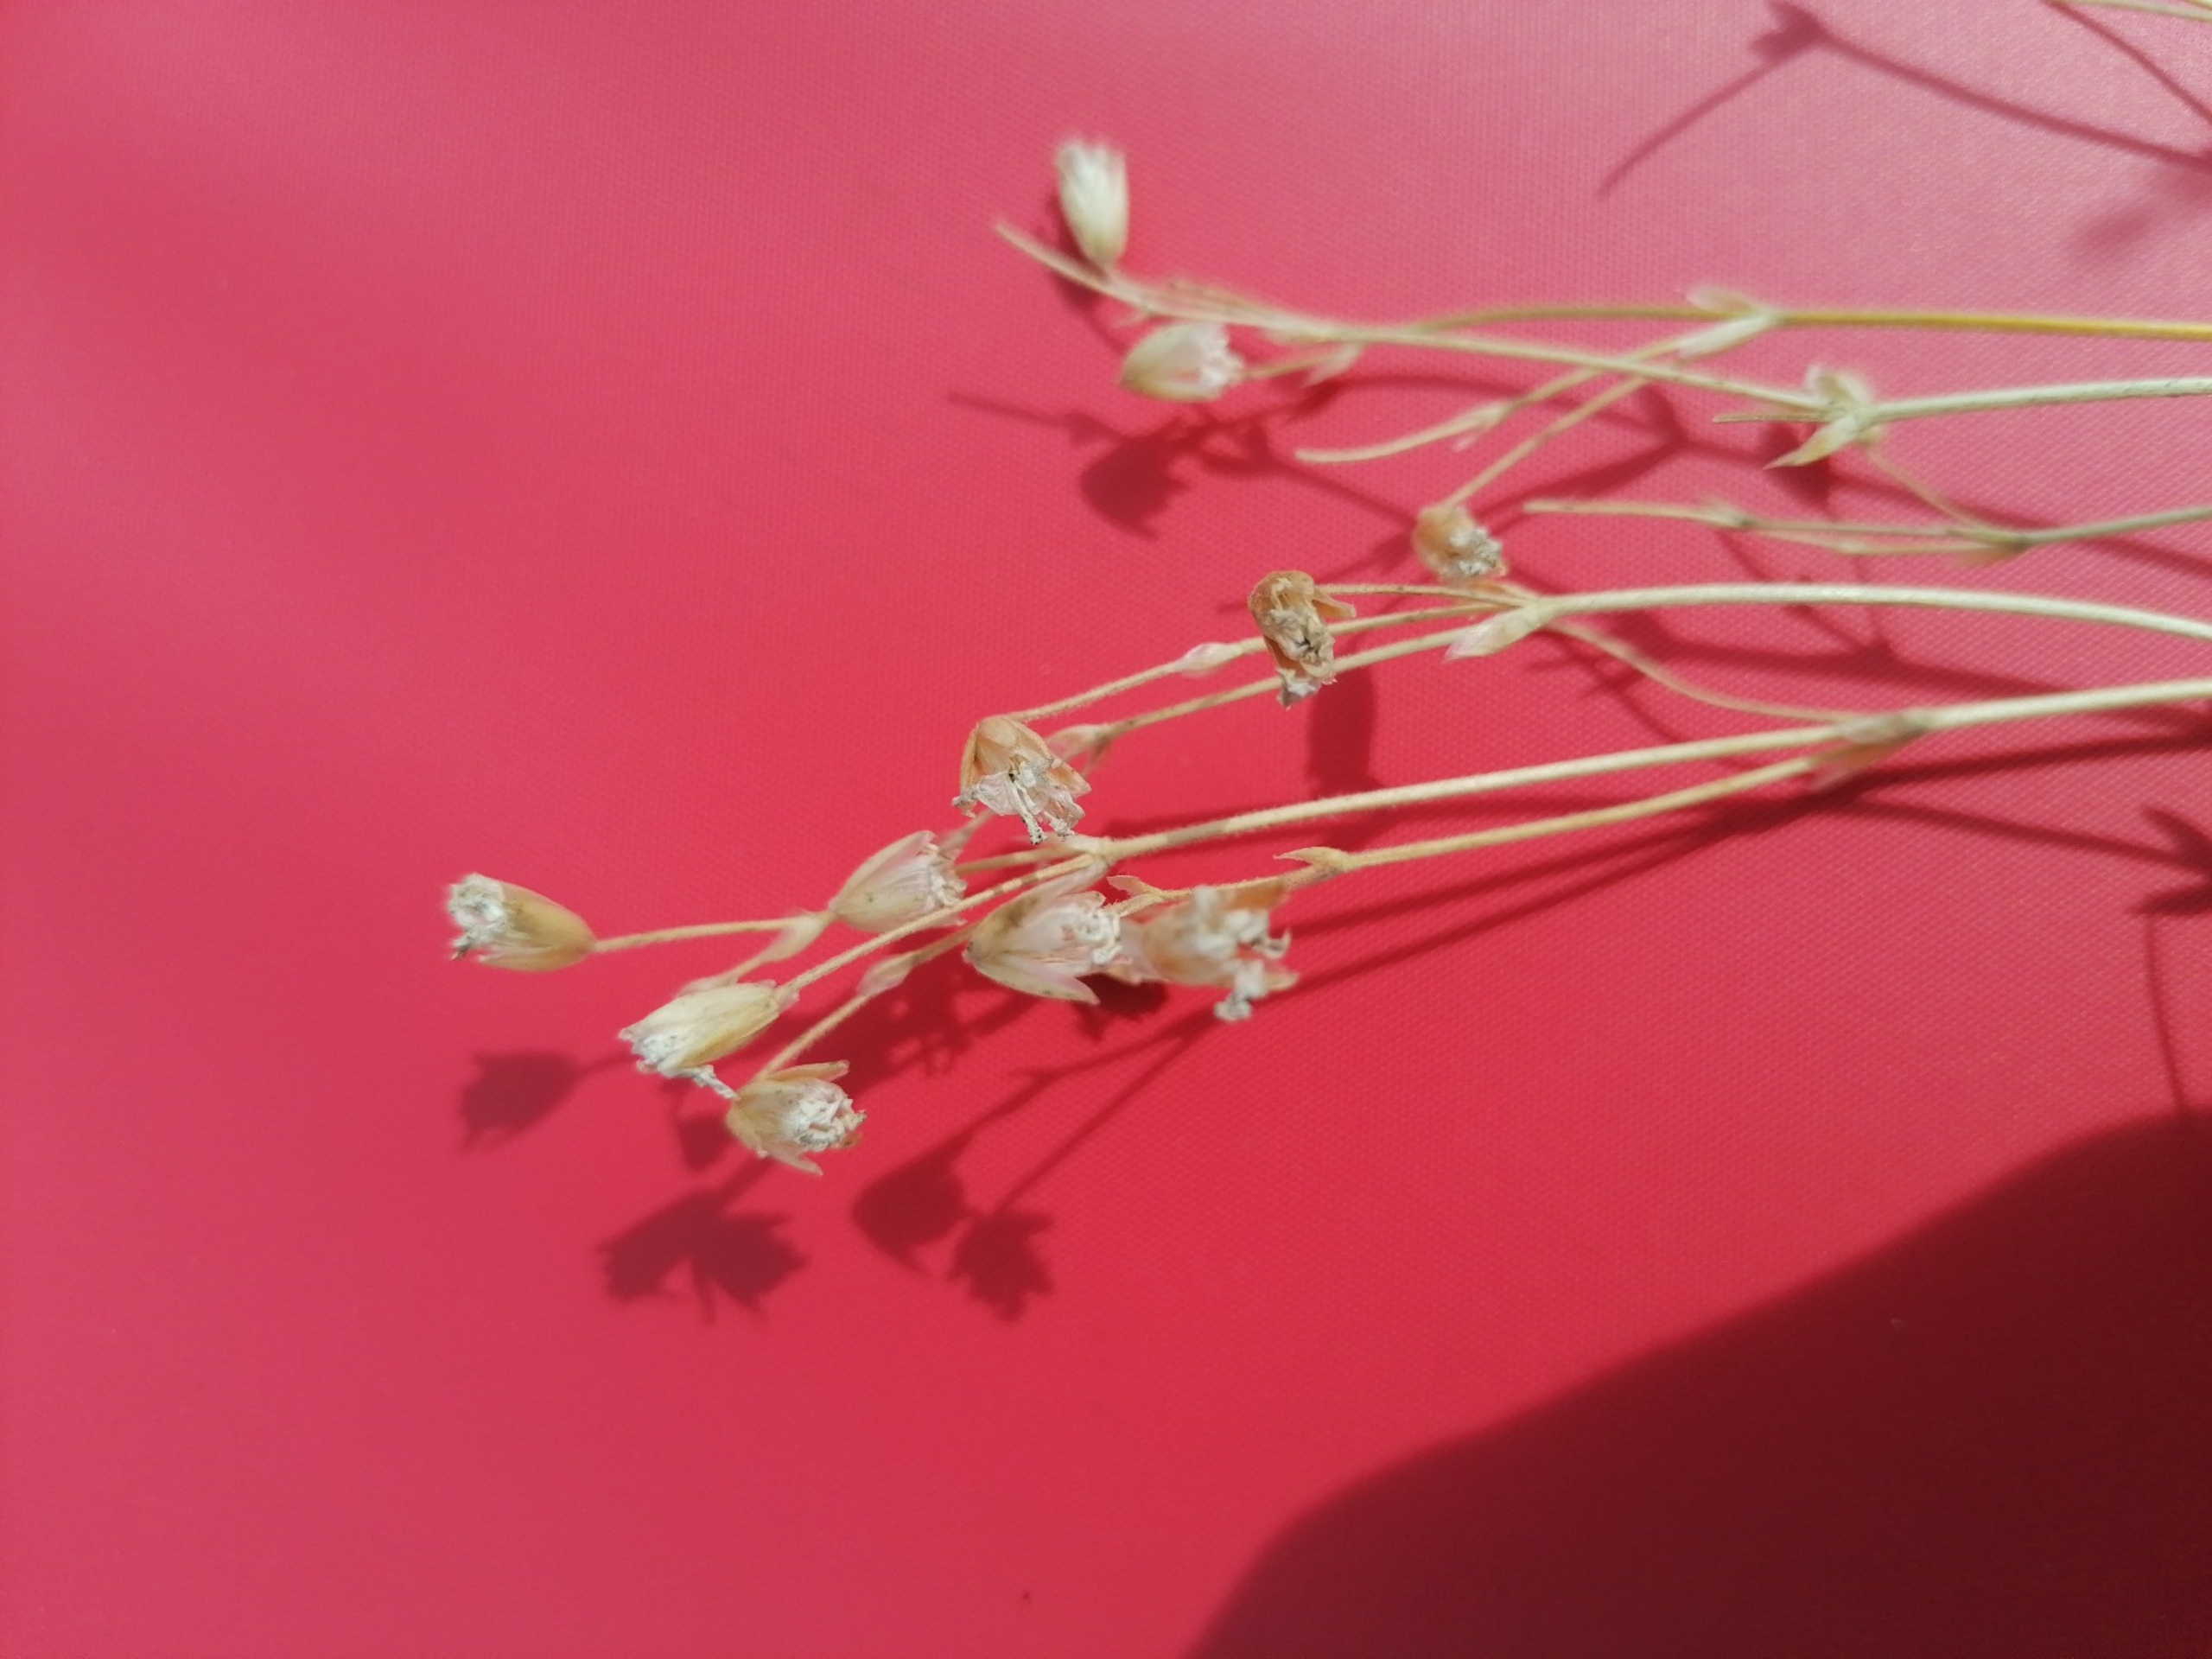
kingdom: Plantae
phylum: Tracheophyta
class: Magnoliopsida
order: Caryophyllales
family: Caryophyllaceae
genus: Cerastium
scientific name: Cerastium arvense
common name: Storblomstret hønsetarm
